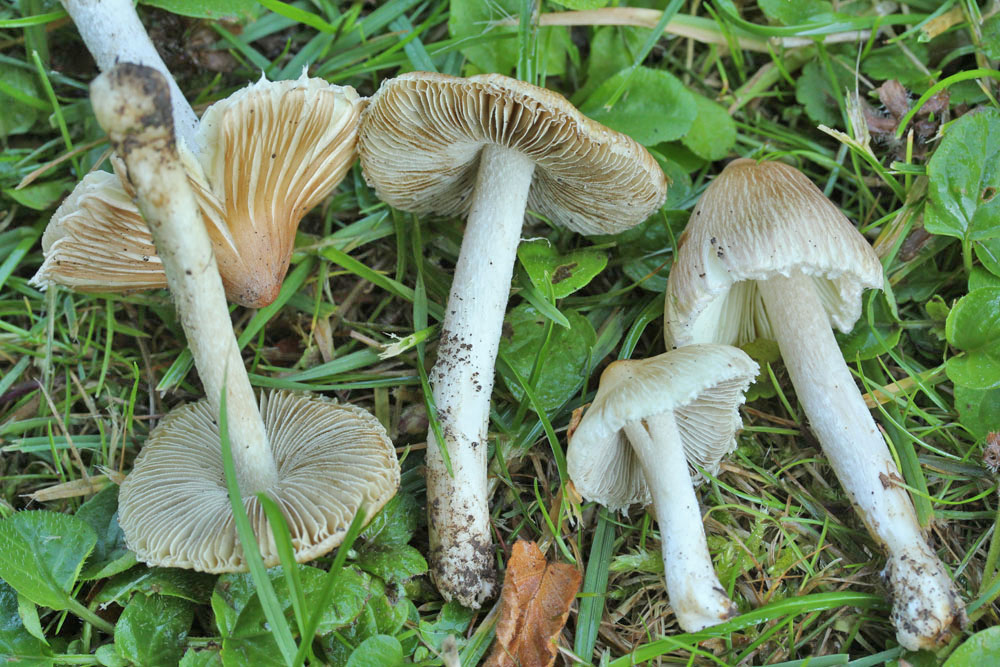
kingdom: Fungi
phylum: Basidiomycota
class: Agaricomycetes
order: Agaricales
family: Inocybaceae
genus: Pseudosperma
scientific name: Pseudosperma rimosum
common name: gulbladet trævlhat
